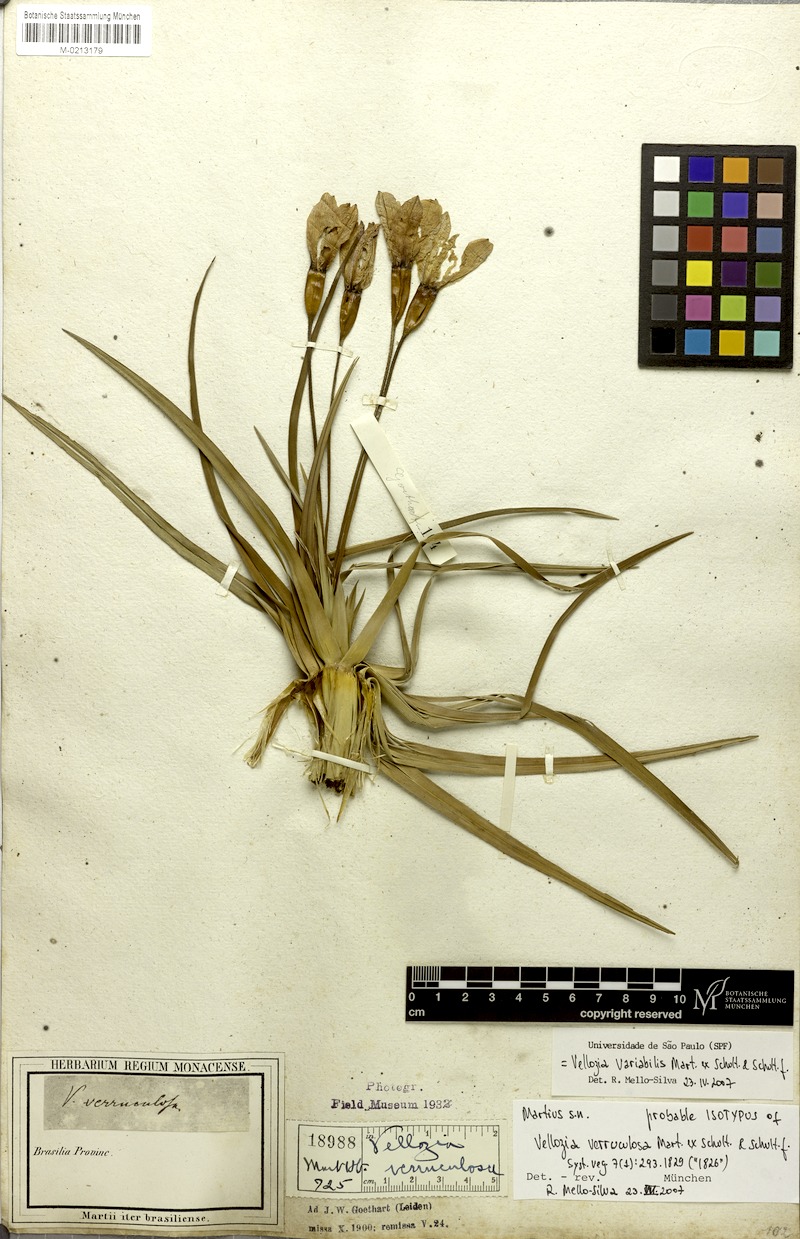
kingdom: Plantae
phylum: Tracheophyta
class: Liliopsida
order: Pandanales
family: Velloziaceae
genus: Vellozia
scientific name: Vellozia variabilis
